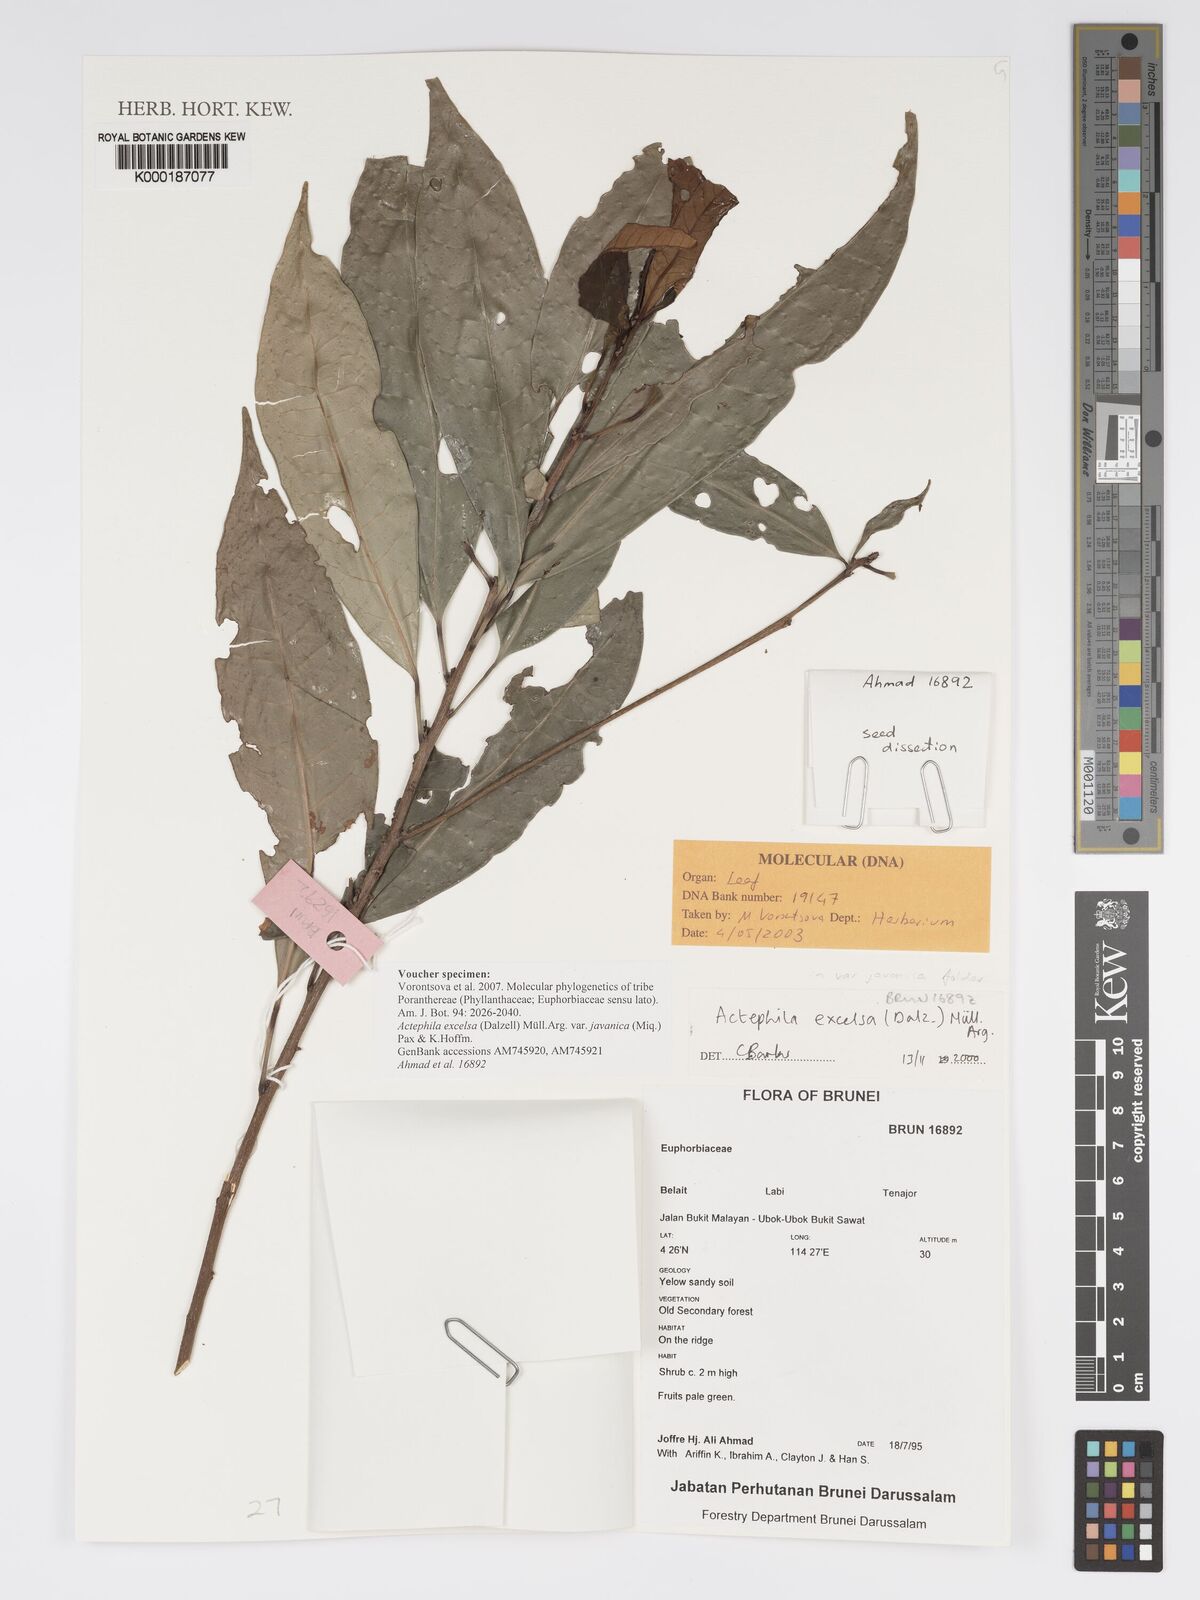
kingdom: Plantae
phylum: Tracheophyta
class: Magnoliopsida
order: Malpighiales
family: Phyllanthaceae
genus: Actephila
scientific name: Actephila
